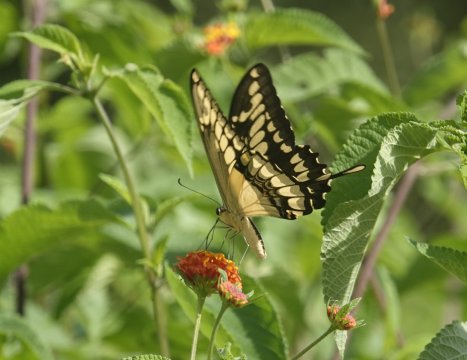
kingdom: Animalia
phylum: Arthropoda
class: Insecta
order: Lepidoptera
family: Papilionidae
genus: Papilio
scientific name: Papilio thoas
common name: Thoas Swallowtail
